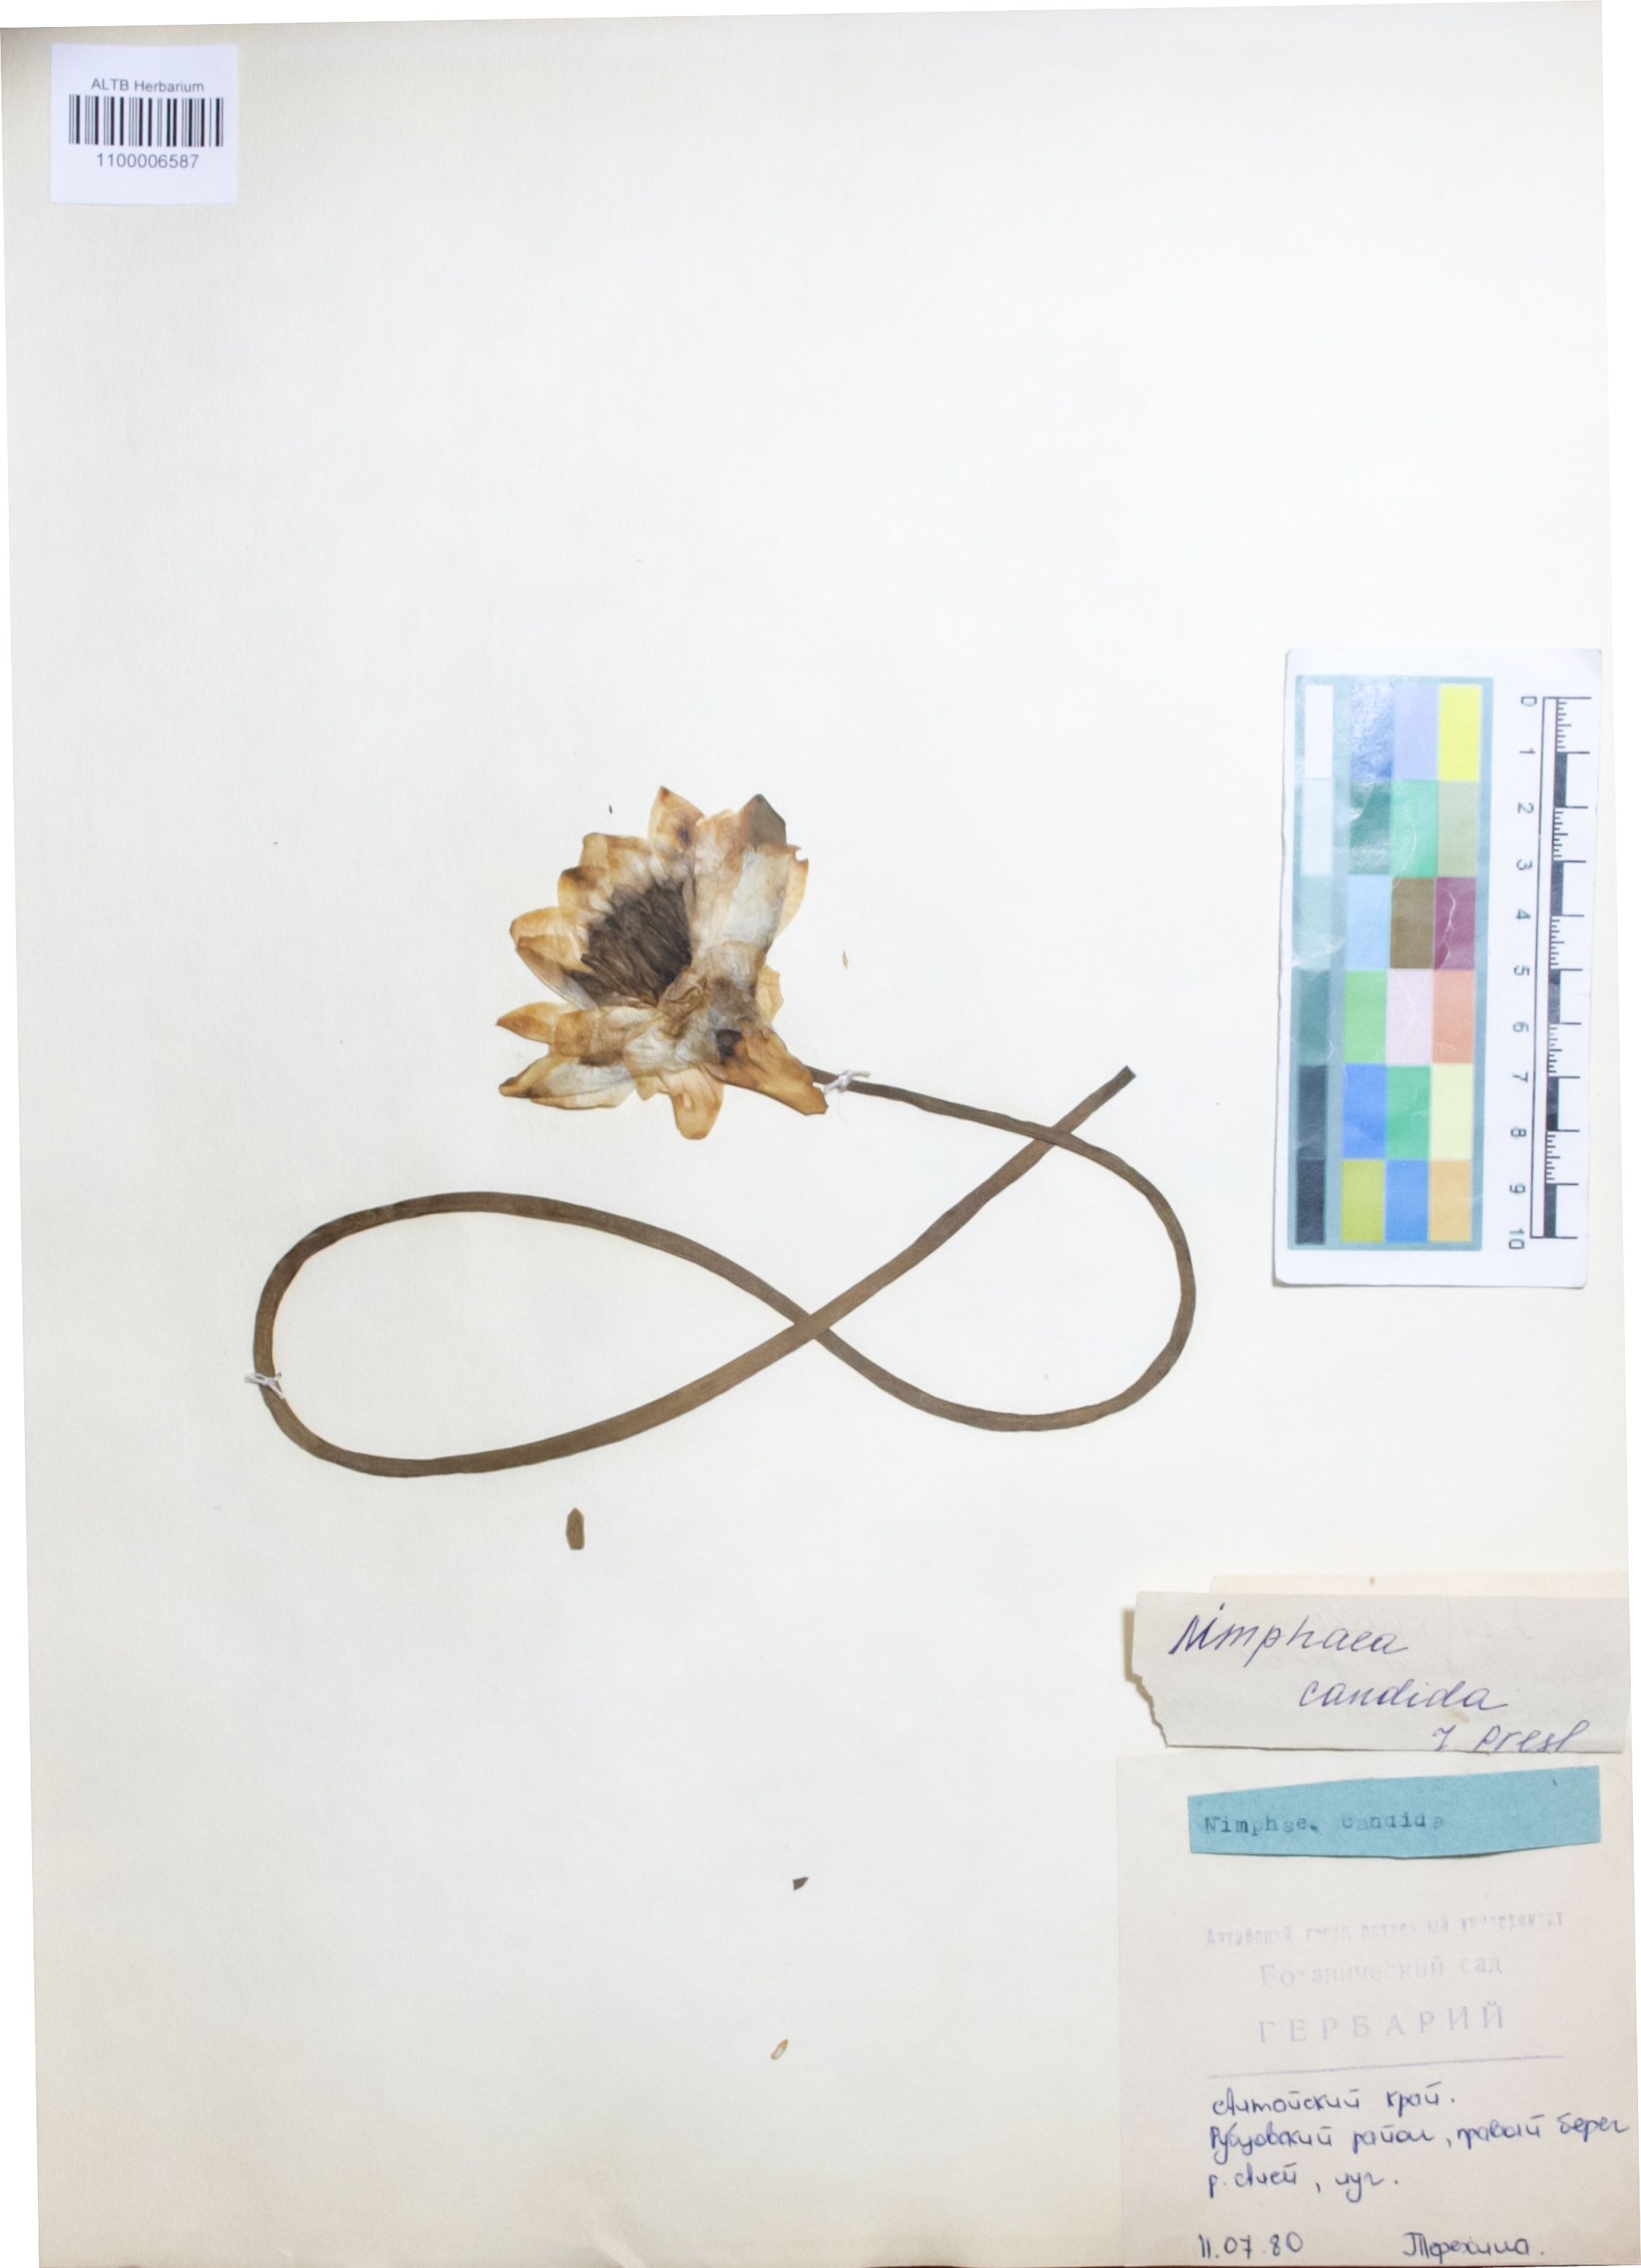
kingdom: Plantae
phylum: Tracheophyta
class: Magnoliopsida
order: Nymphaeales
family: Nymphaeaceae
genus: Nymphaea
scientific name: Nymphaea candida
